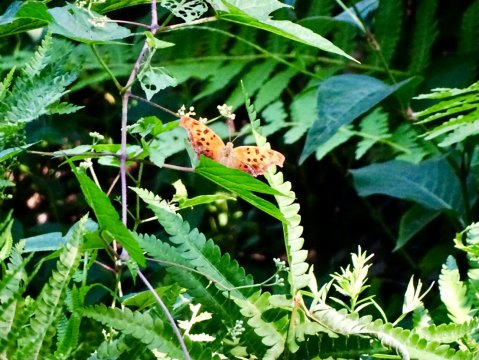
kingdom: Animalia
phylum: Arthropoda
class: Insecta
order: Lepidoptera
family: Nymphalidae
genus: Polygonia
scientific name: Polygonia interrogationis
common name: Question Mark
